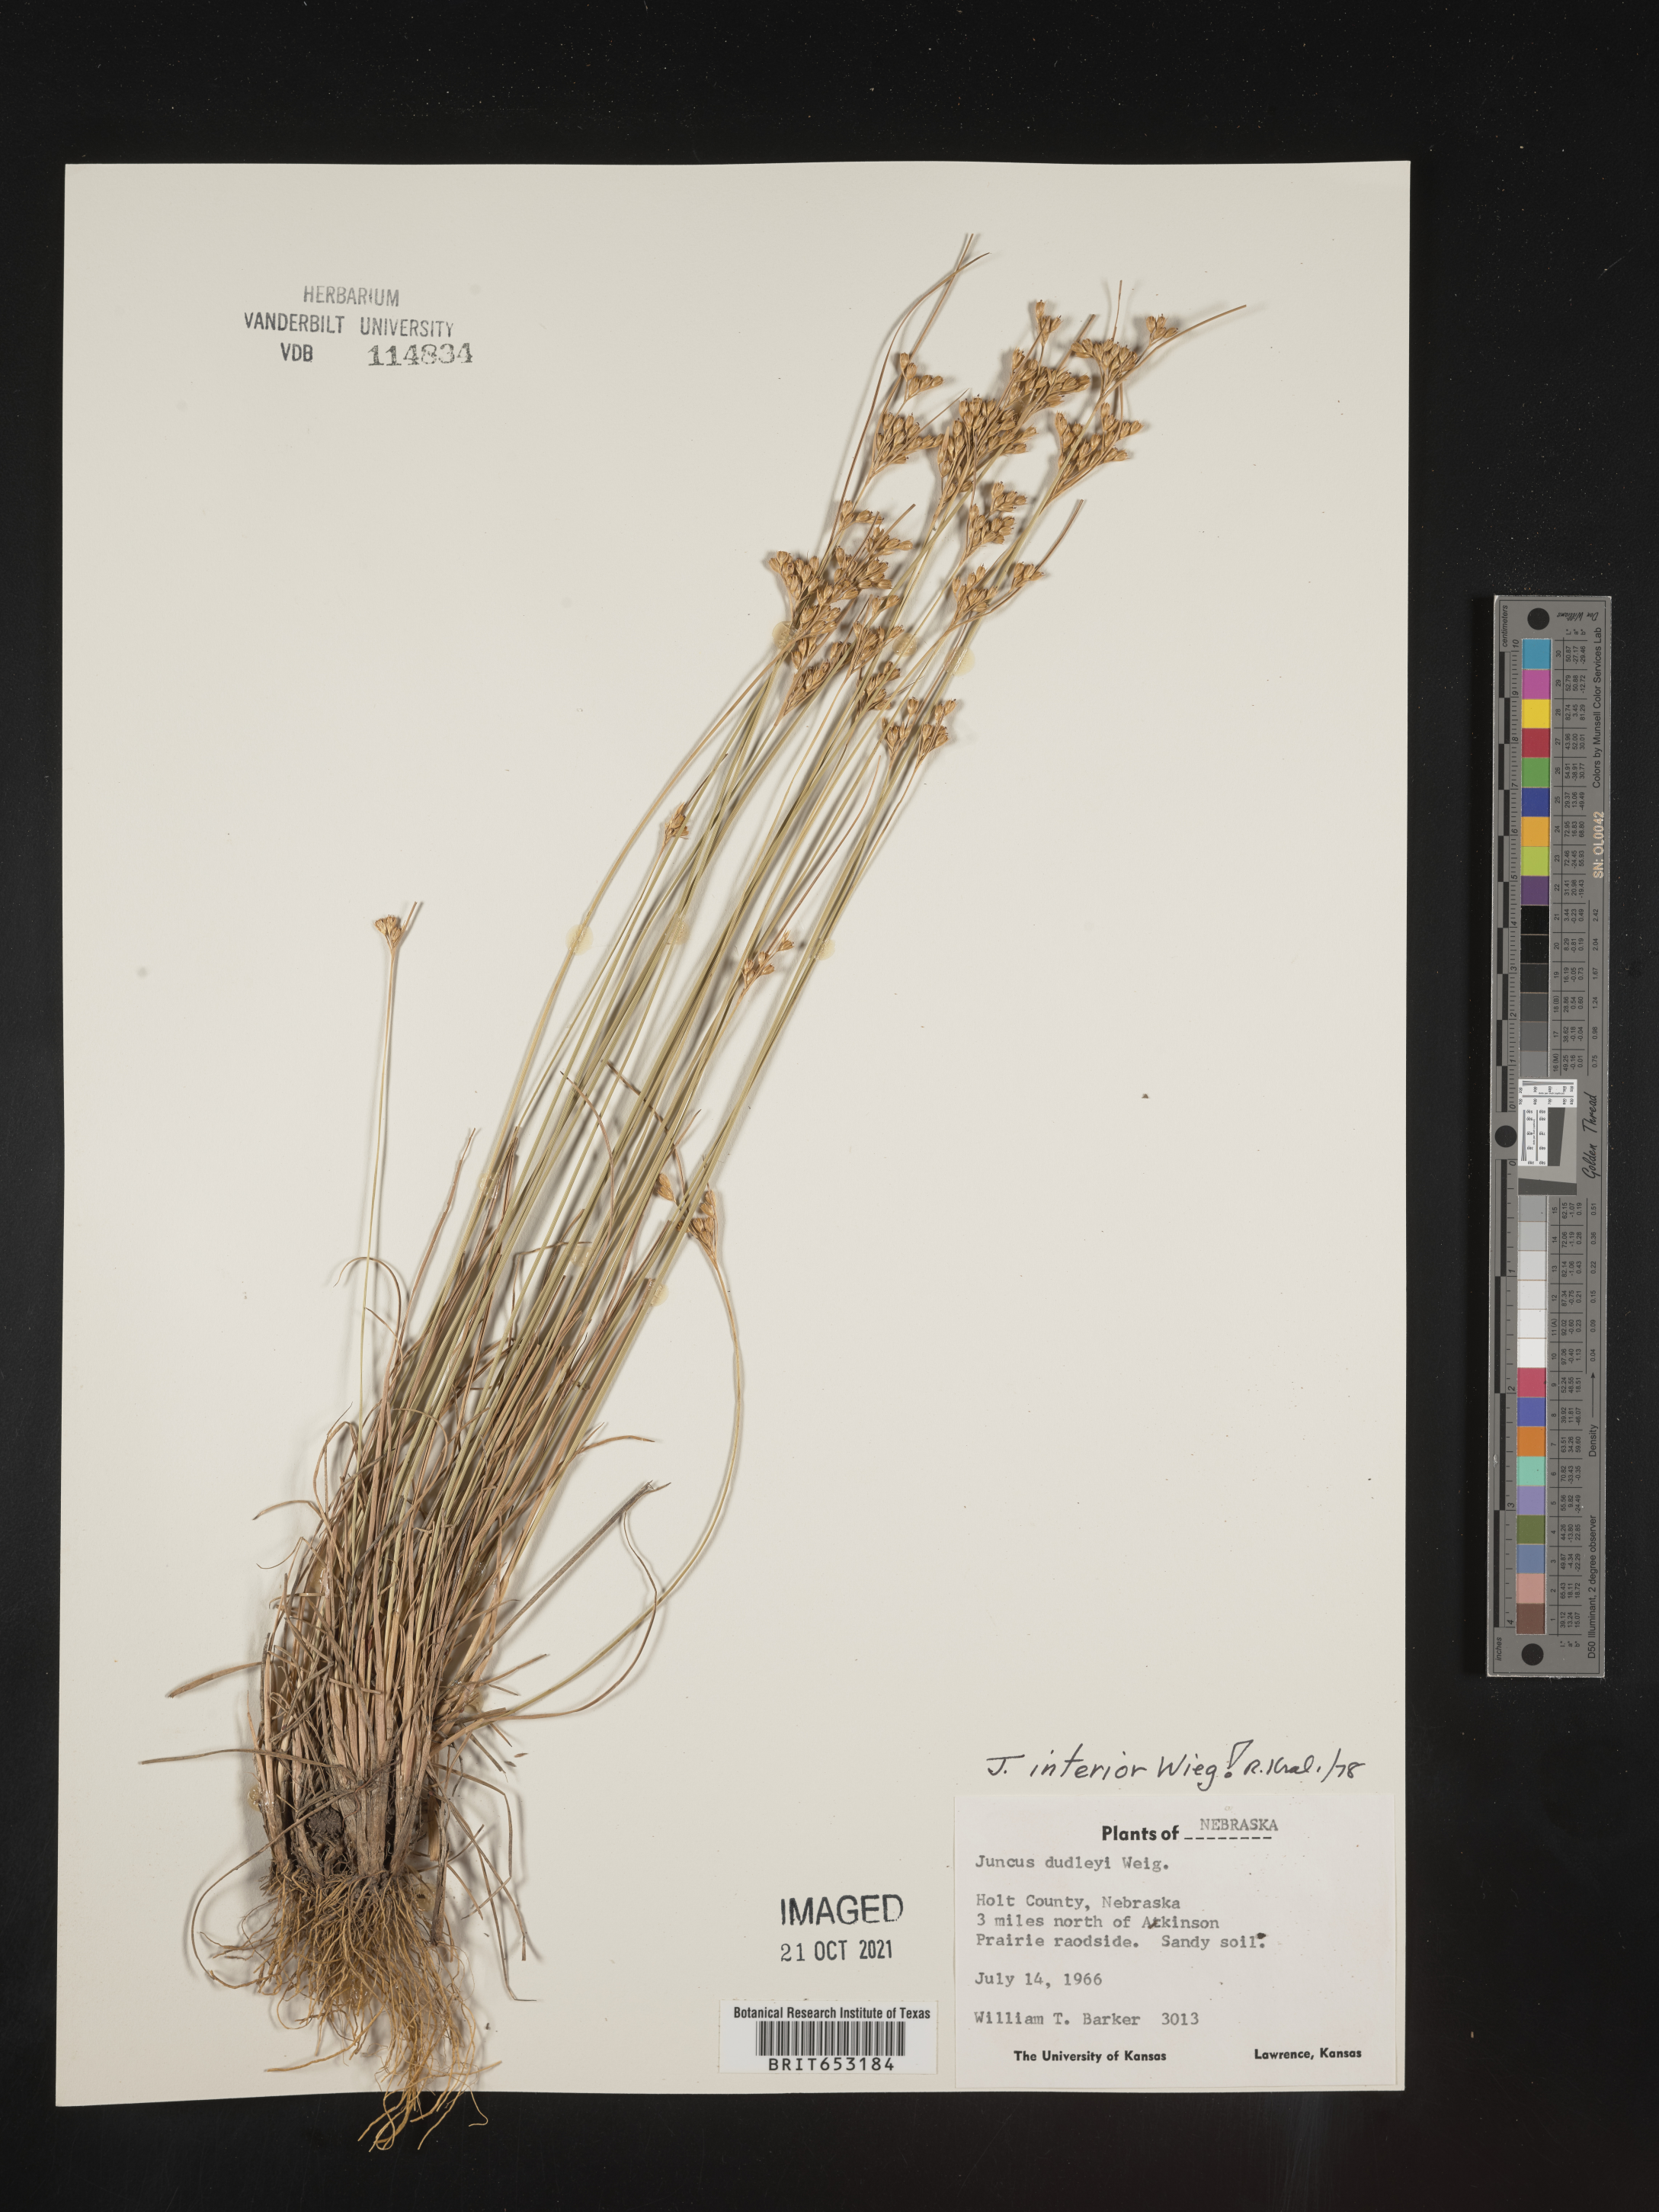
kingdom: Plantae
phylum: Tracheophyta
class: Liliopsida
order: Poales
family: Juncaceae
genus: Juncus
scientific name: Juncus interior
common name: Interior rush
